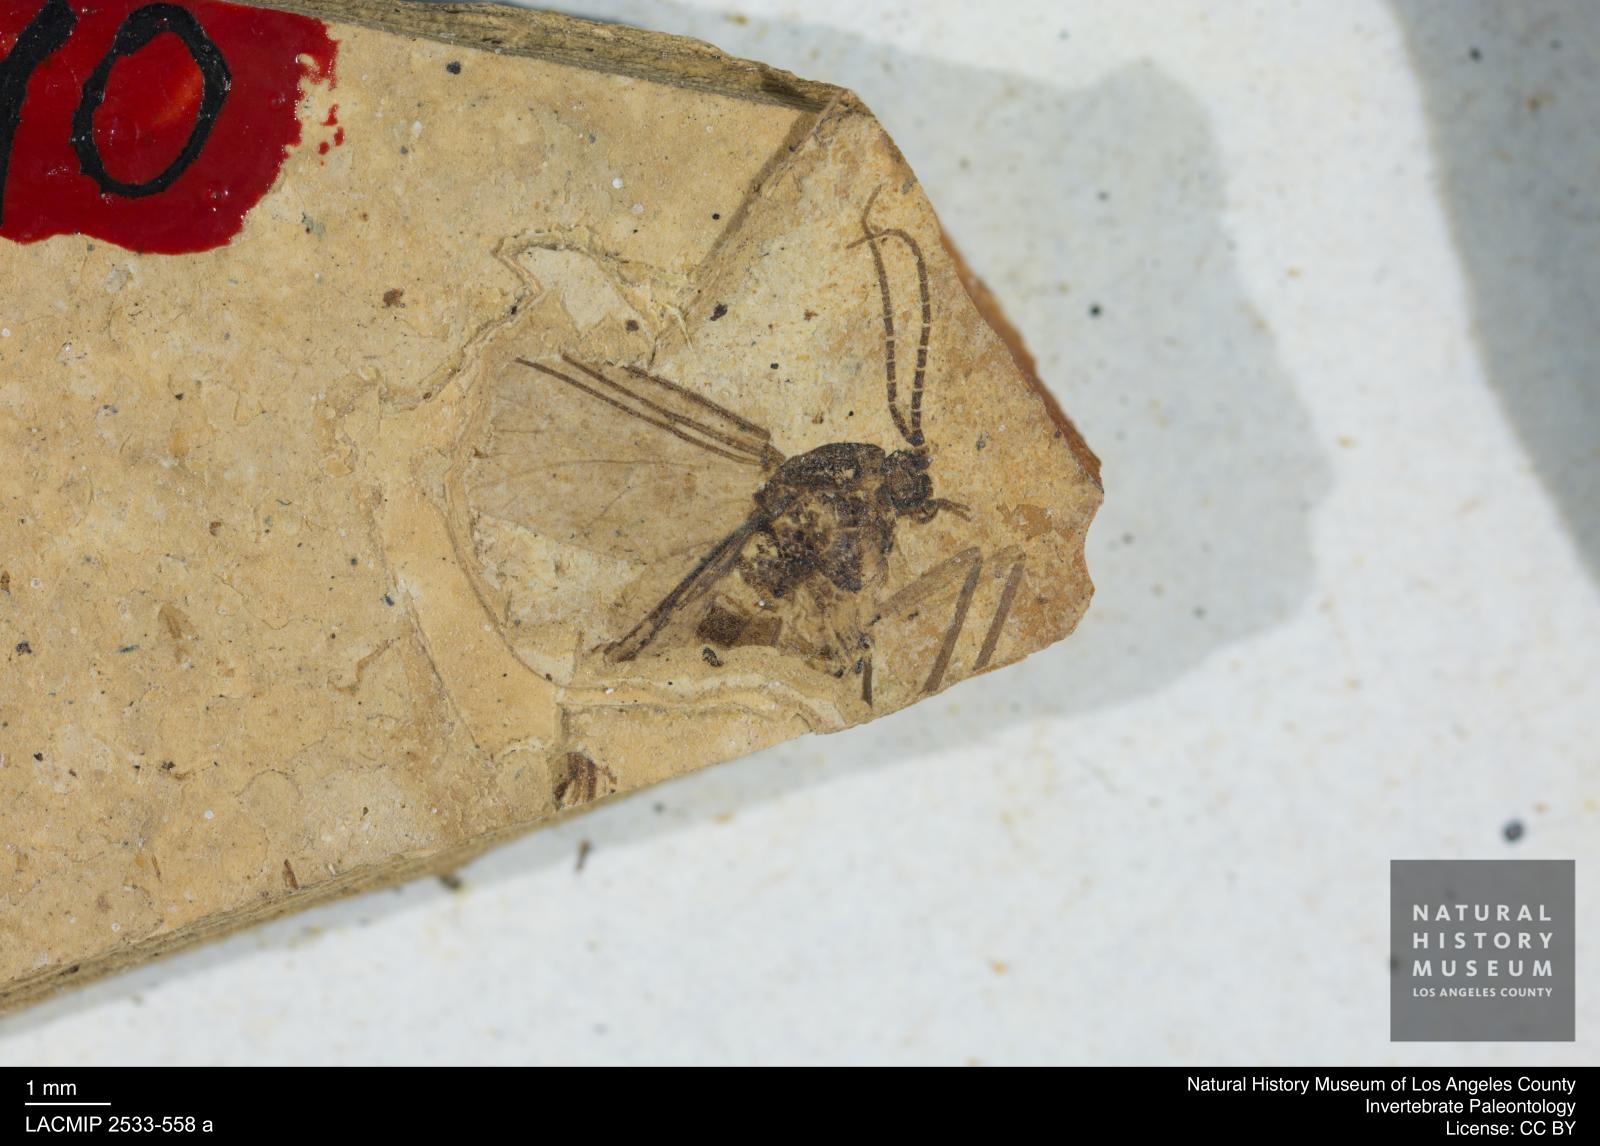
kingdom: Animalia
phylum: Arthropoda
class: Insecta
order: Diptera
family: Sciaridae
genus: Sciara
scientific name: Sciara aulica
